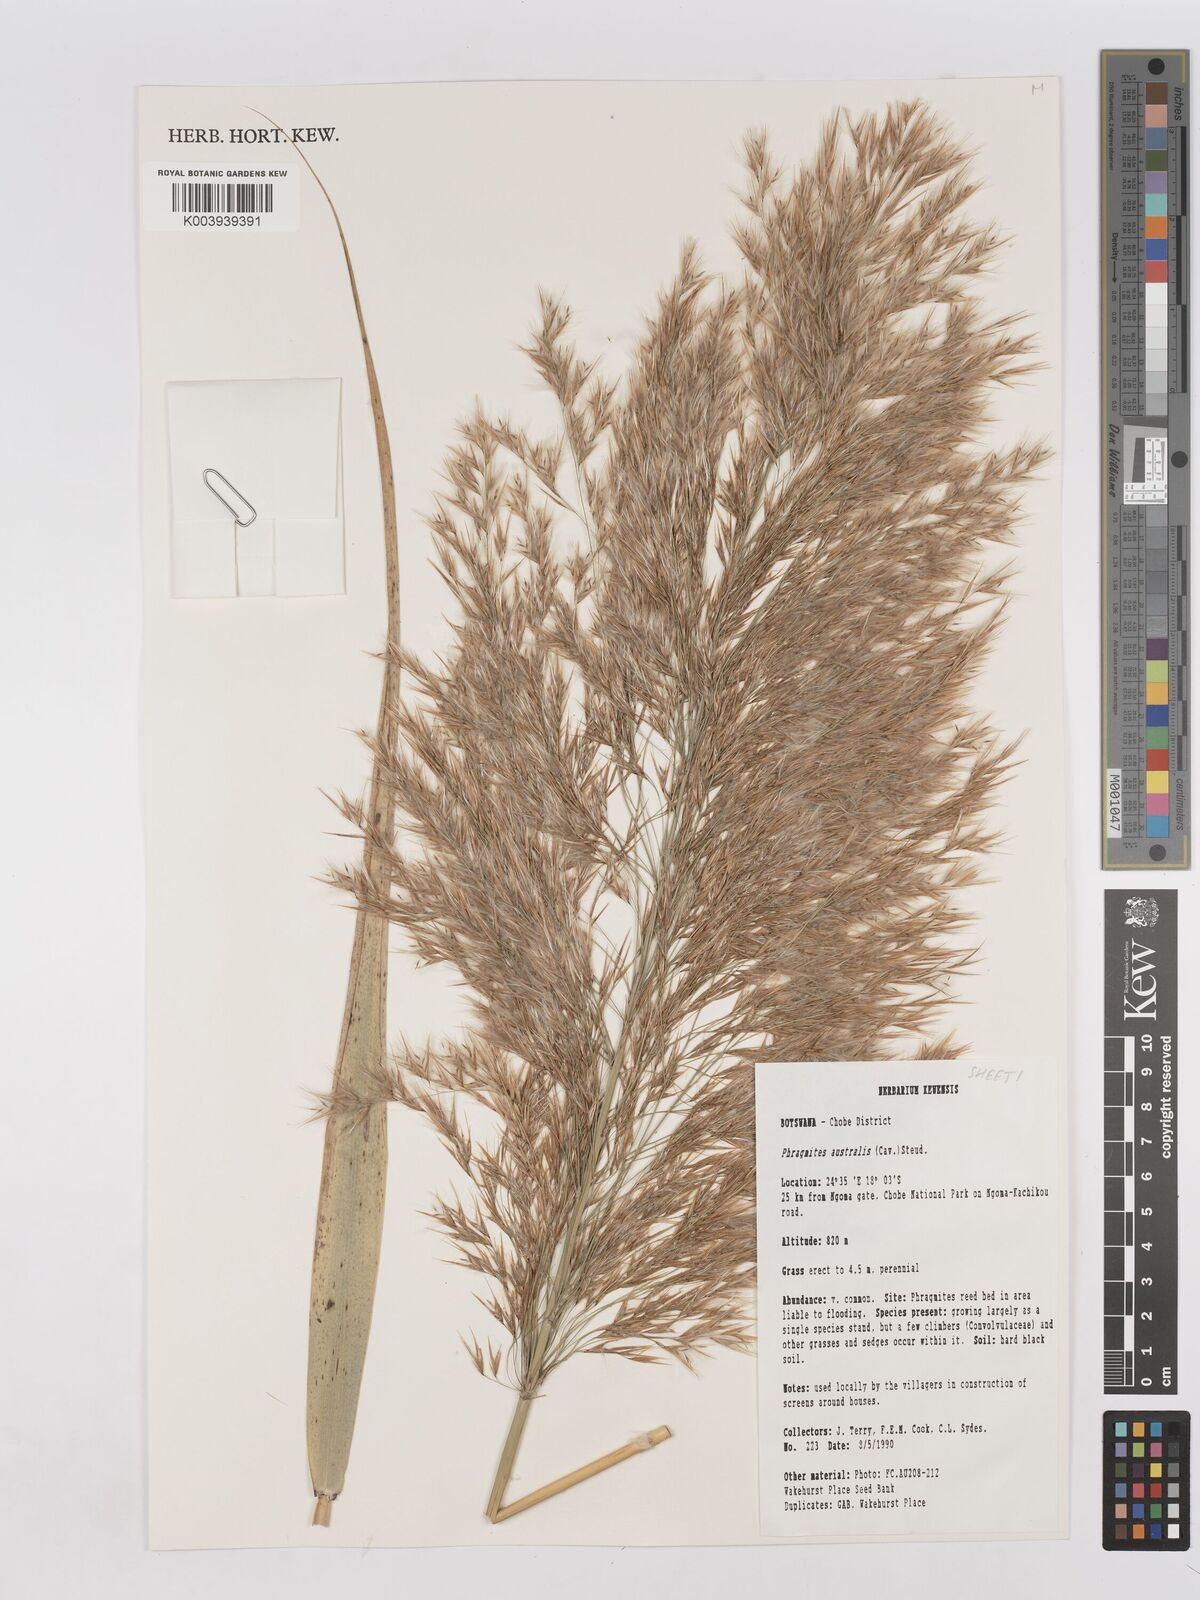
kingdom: Plantae
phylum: Tracheophyta
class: Liliopsida
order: Poales
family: Poaceae
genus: Phragmites
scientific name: Phragmites australis
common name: Common reed
